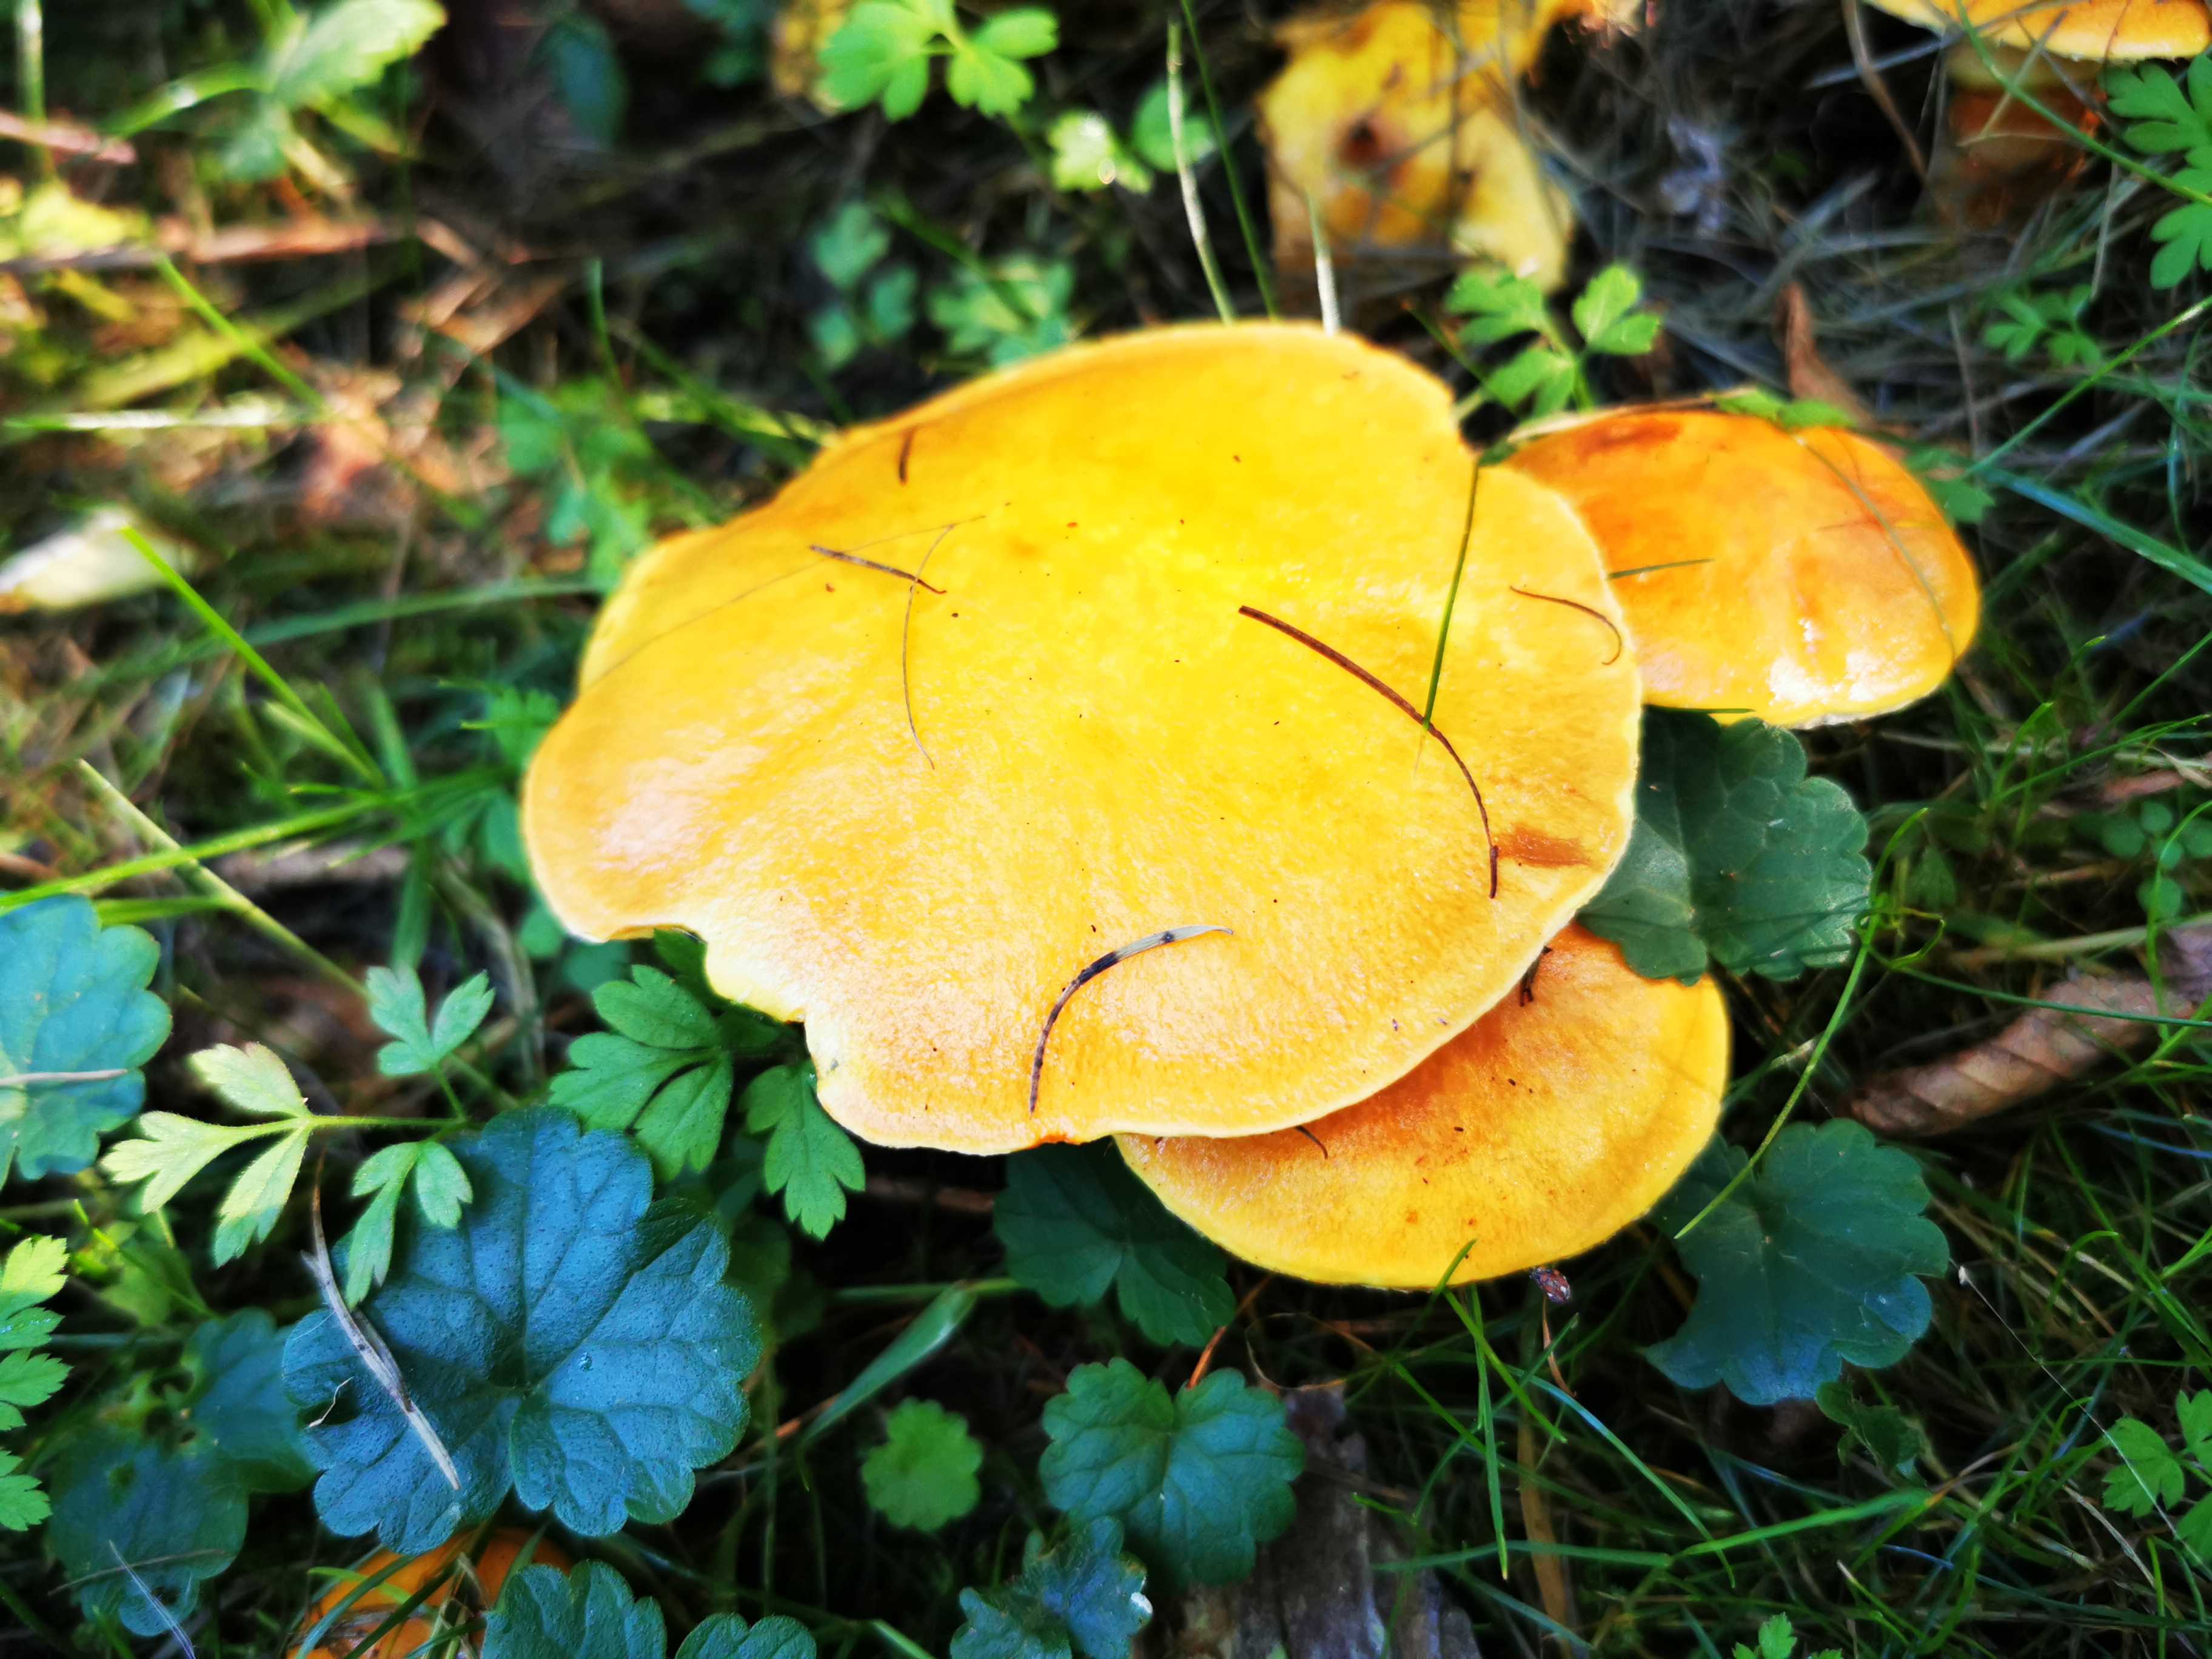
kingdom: Fungi
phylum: Basidiomycota
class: Agaricomycetes
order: Boletales
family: Suillaceae
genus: Suillus
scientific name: Suillus grevillei
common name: lærke-slimrørhat
